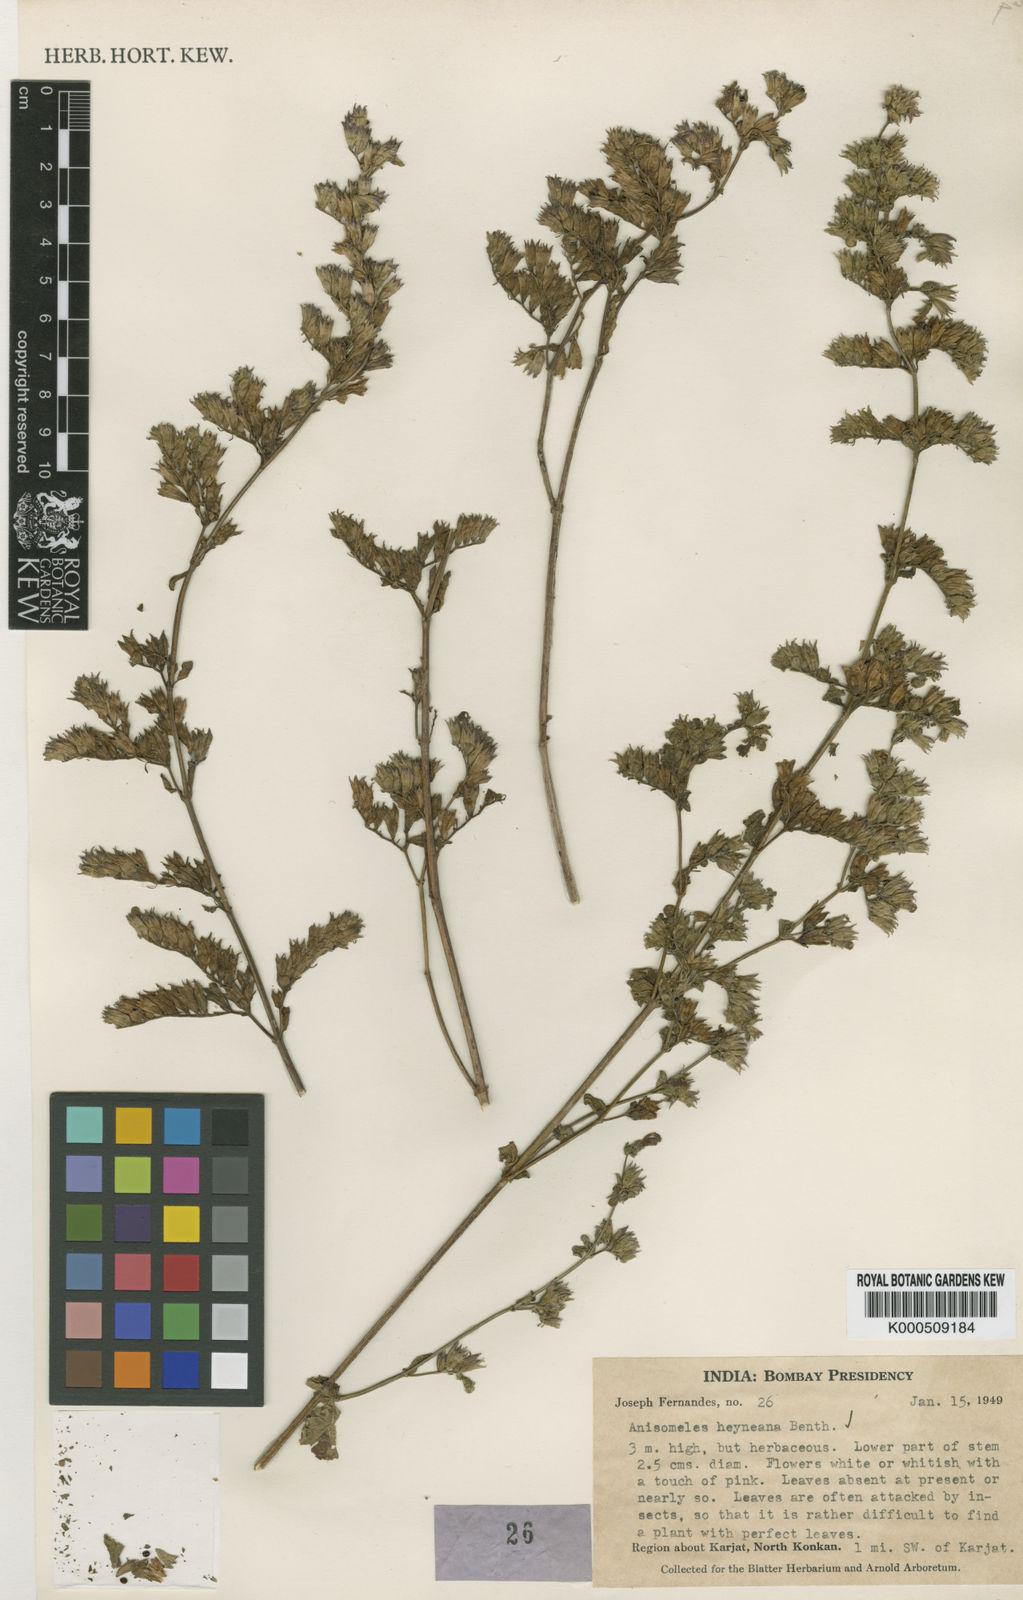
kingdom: Plantae
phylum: Tracheophyta
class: Magnoliopsida
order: Lamiales
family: Lamiaceae
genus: Anisomeles
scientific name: Anisomeles indica
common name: Catmint
